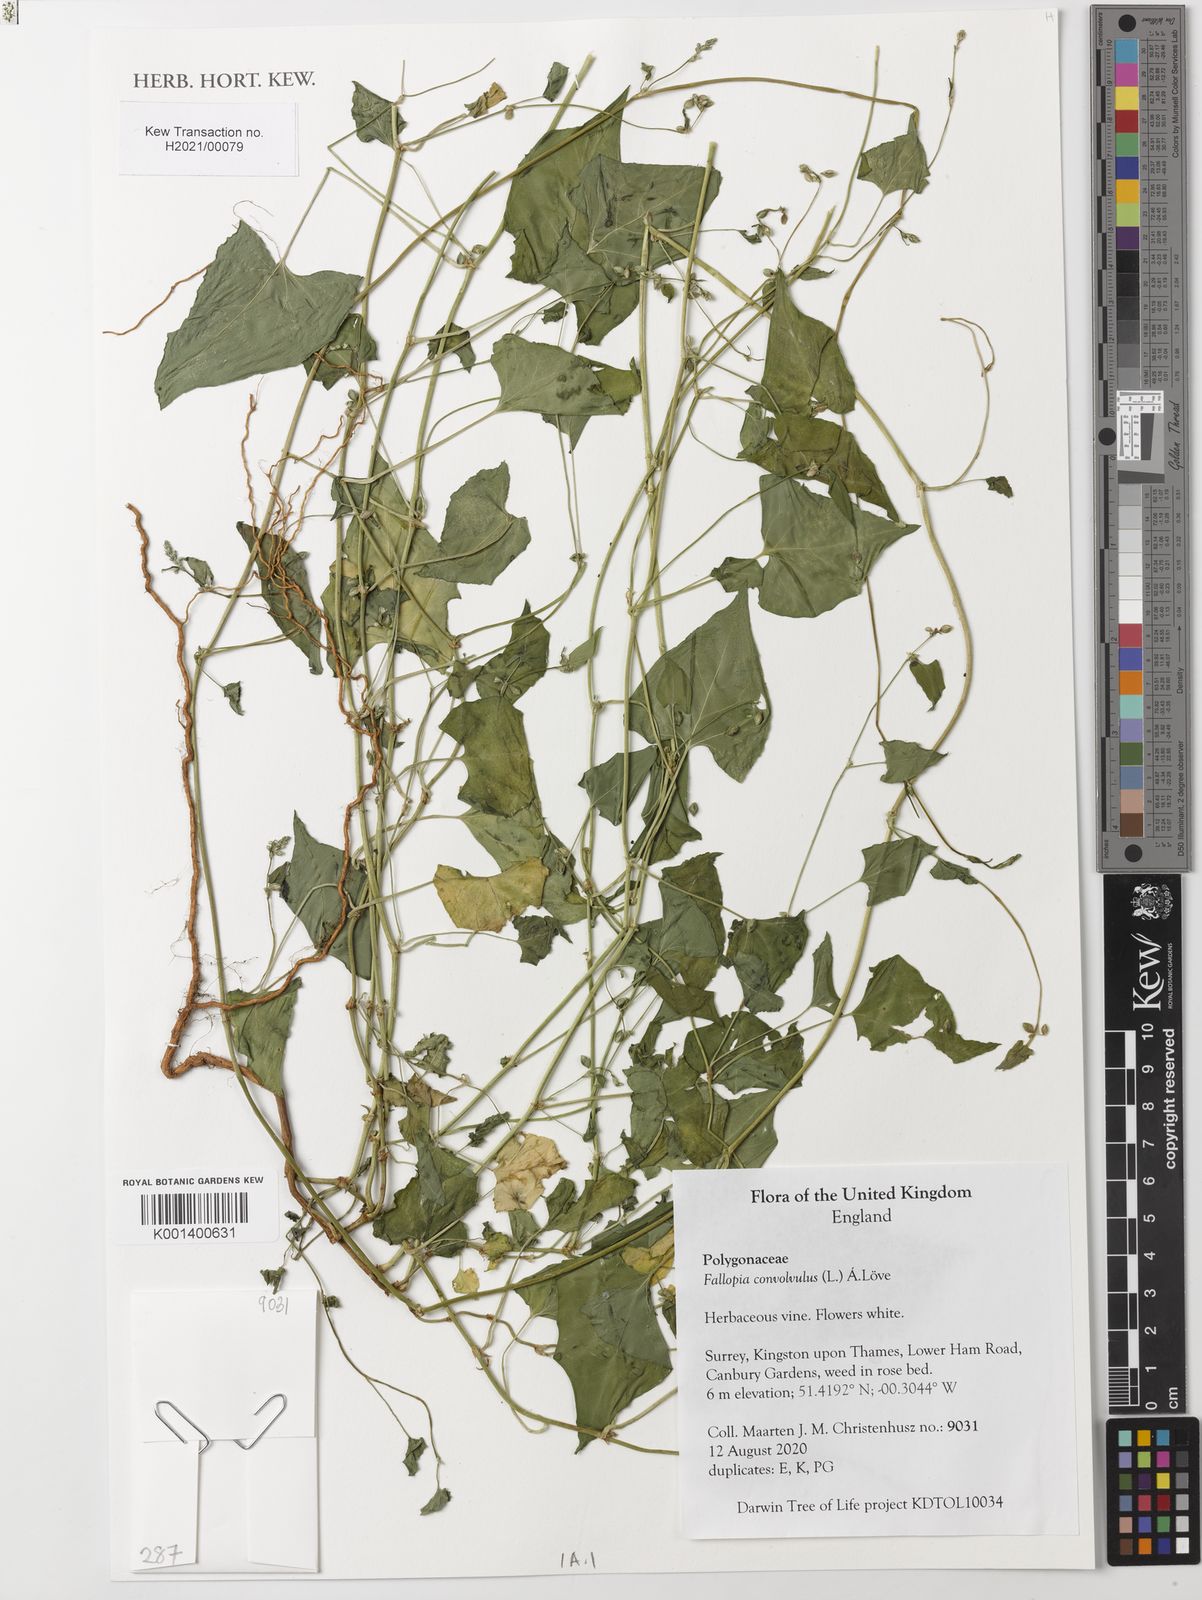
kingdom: Plantae
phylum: Tracheophyta
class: Magnoliopsida
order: Caryophyllales
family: Polygonaceae
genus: Fallopia
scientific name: Fallopia convolvulus
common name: Black bindweed
